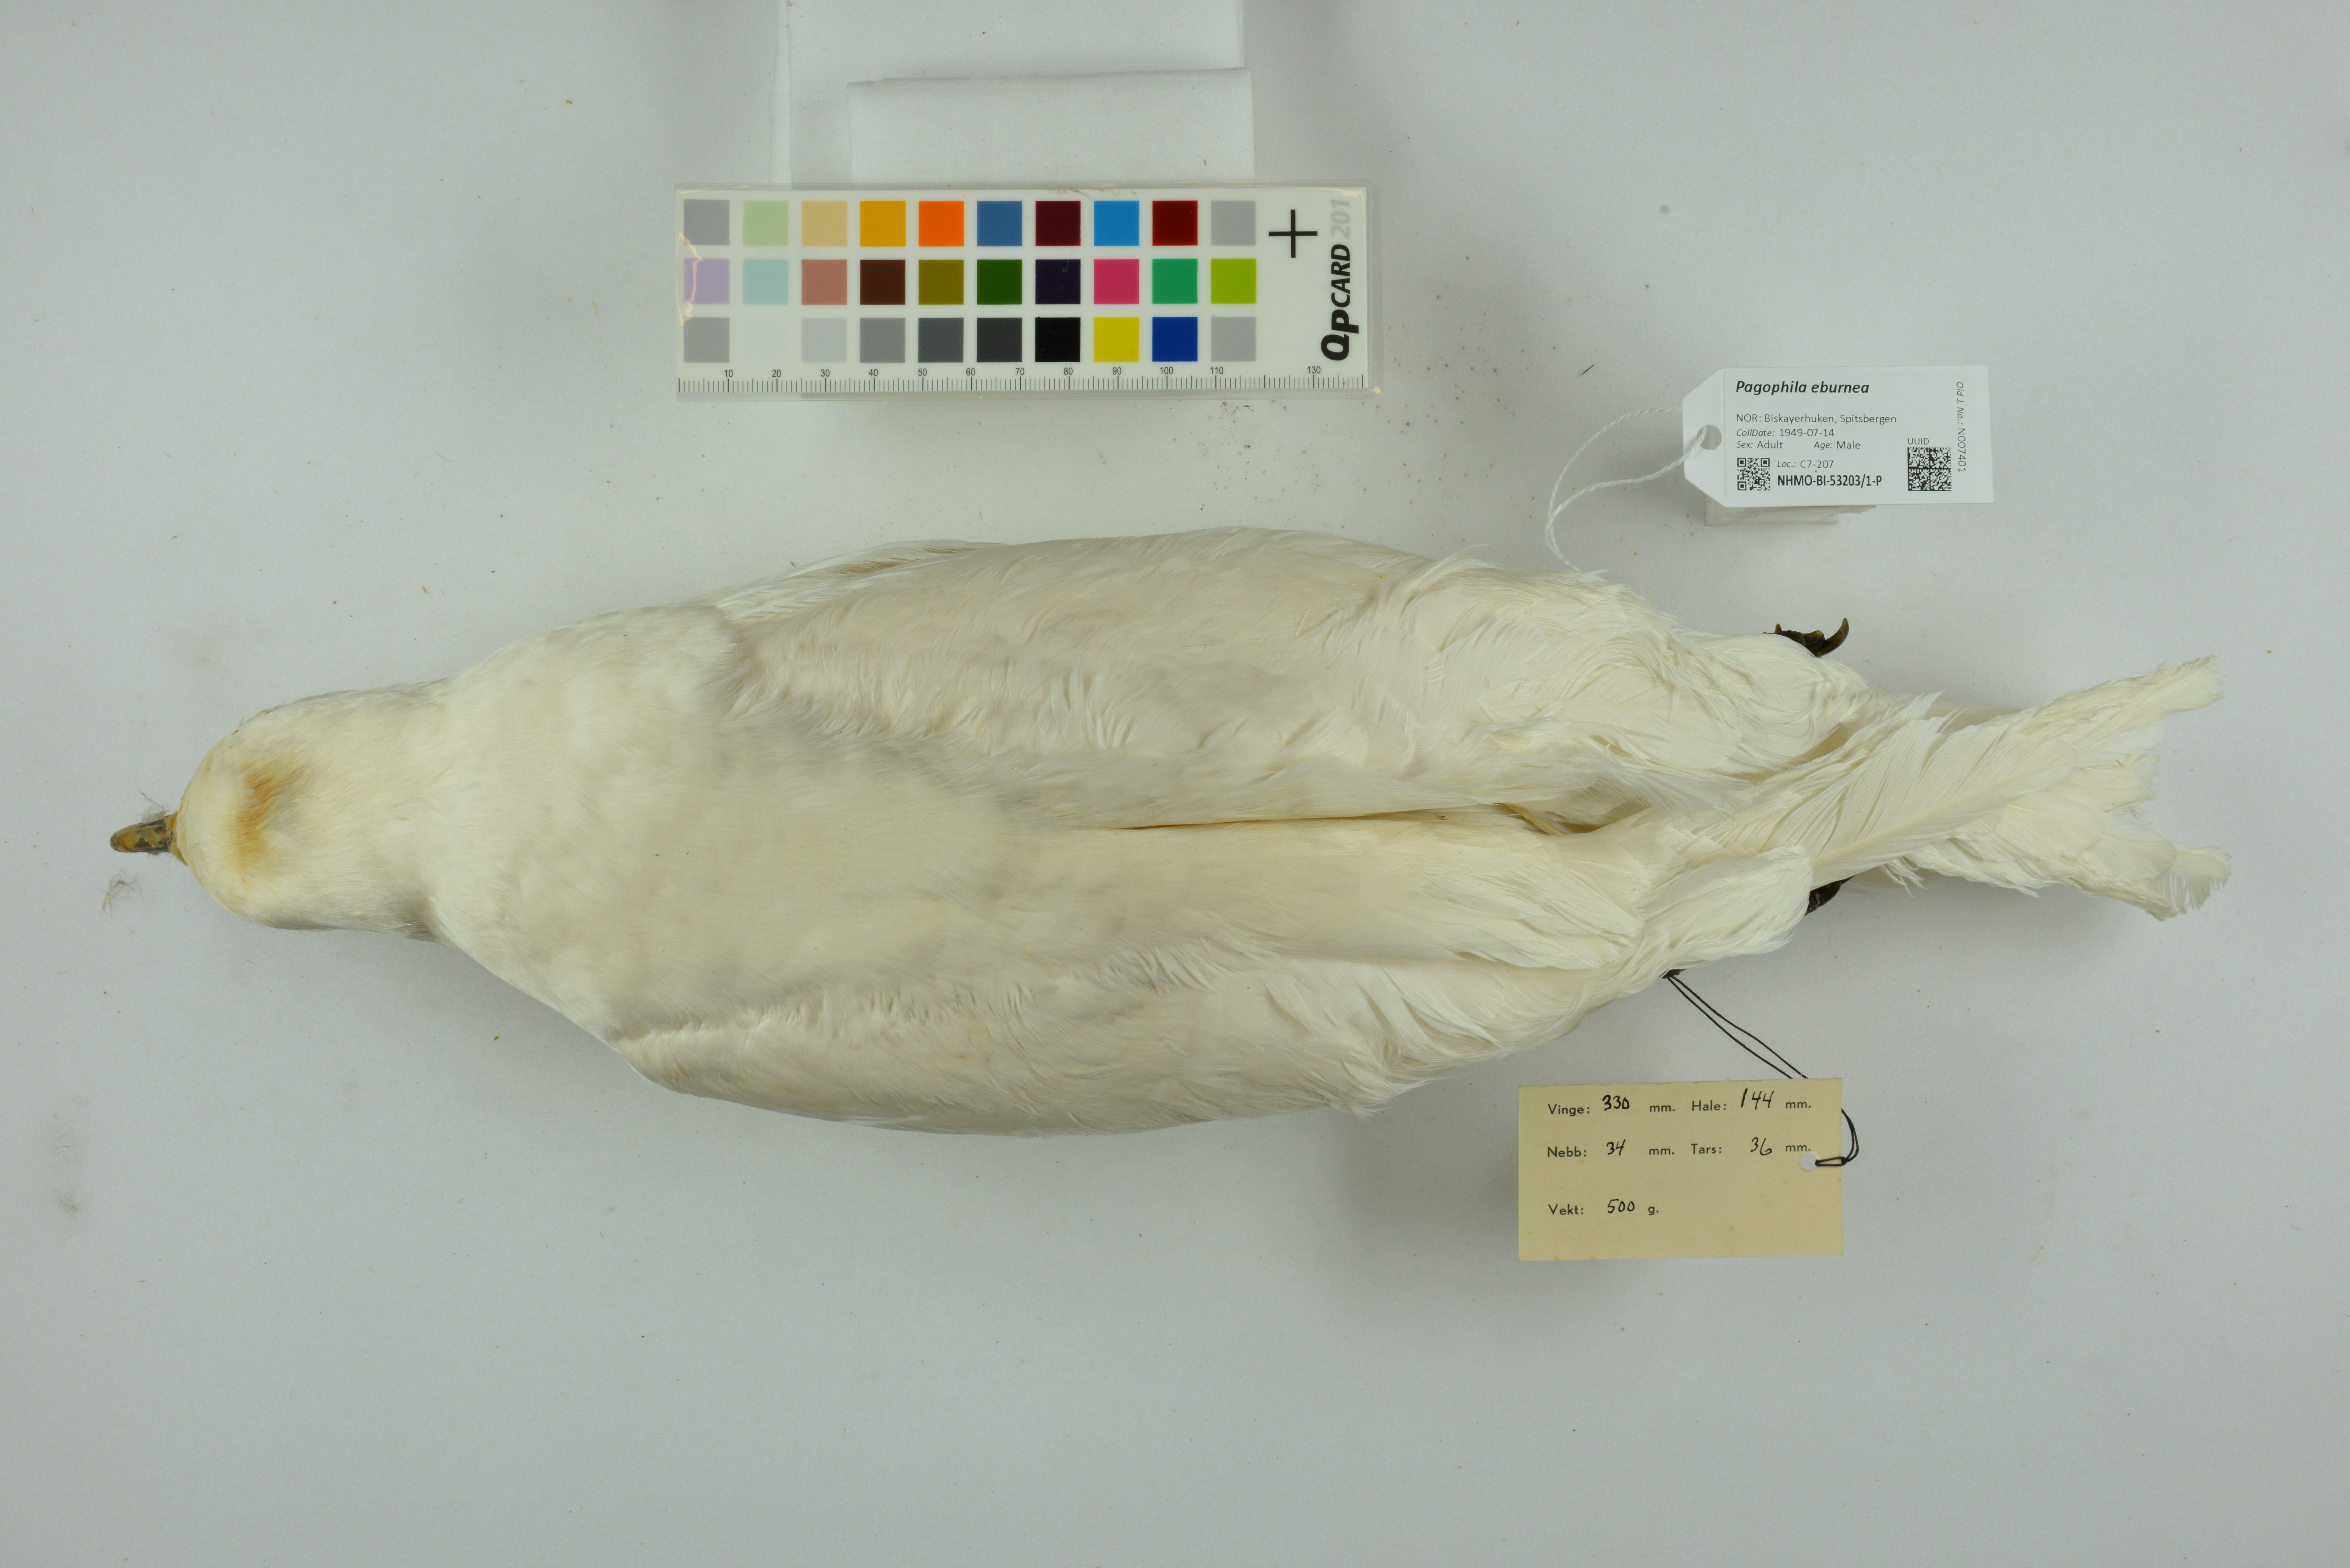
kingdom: Animalia
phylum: Chordata
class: Aves
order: Charadriiformes
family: Laridae
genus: Pagophila
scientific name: Pagophila eburnea
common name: Ivory gull
